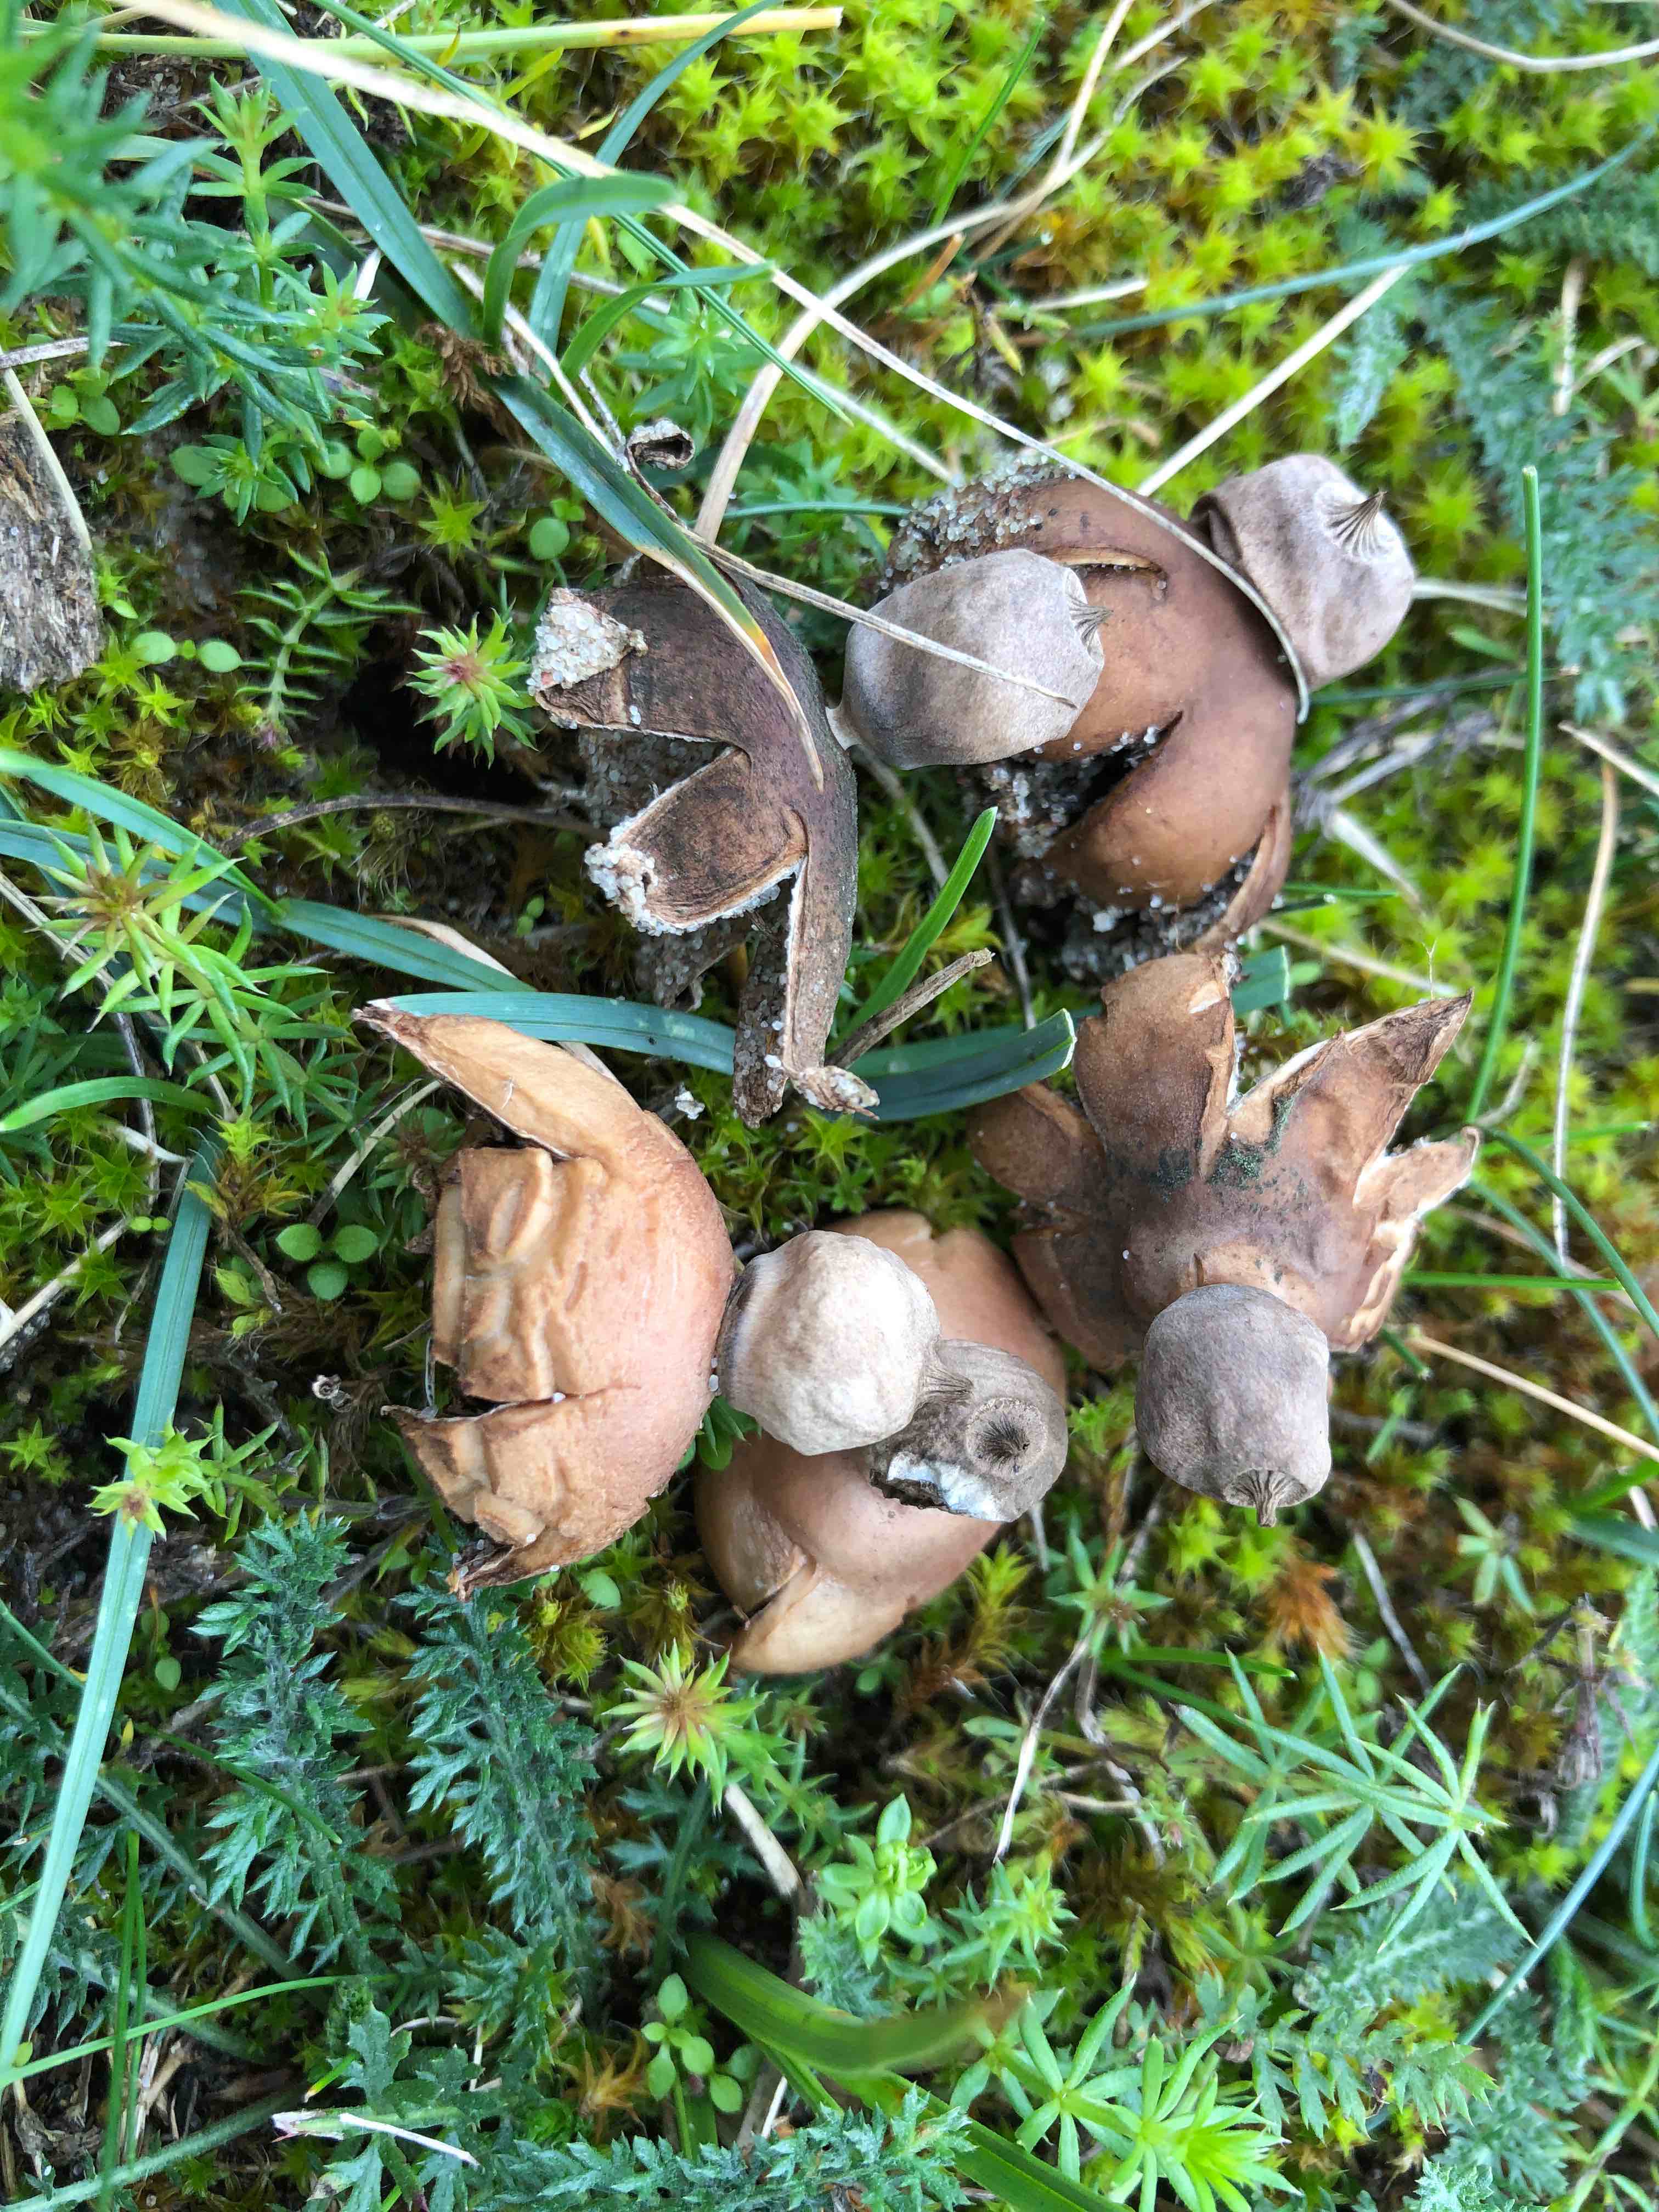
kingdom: Fungi
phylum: Basidiomycota
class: Agaricomycetes
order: Geastrales
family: Geastraceae
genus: Geastrum
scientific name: Geastrum striatum
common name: dværg-stjernebold
